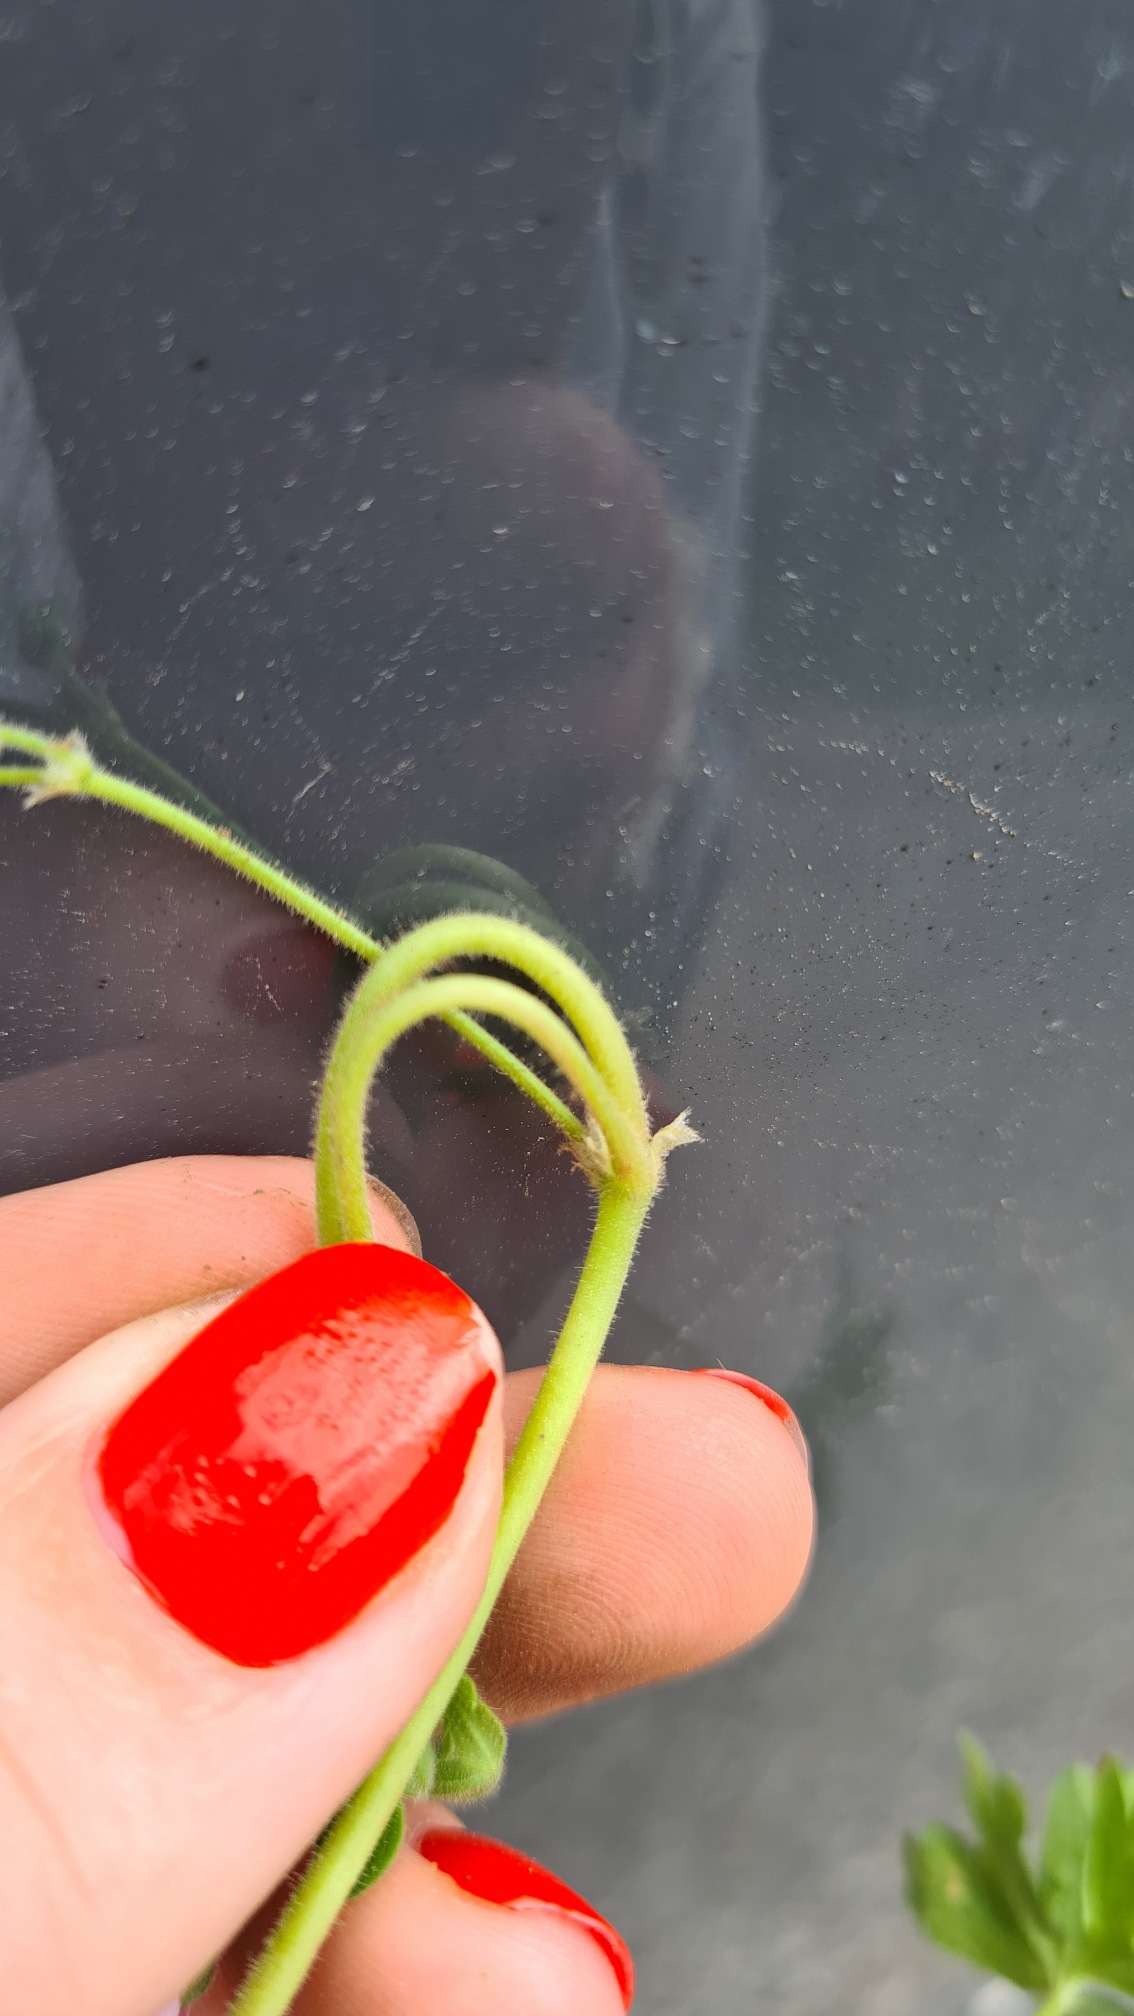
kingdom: Plantae
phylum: Tracheophyta
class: Magnoliopsida
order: Geraniales
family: Geraniaceae
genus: Geranium
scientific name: Geranium molle
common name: Blød storkenæb
